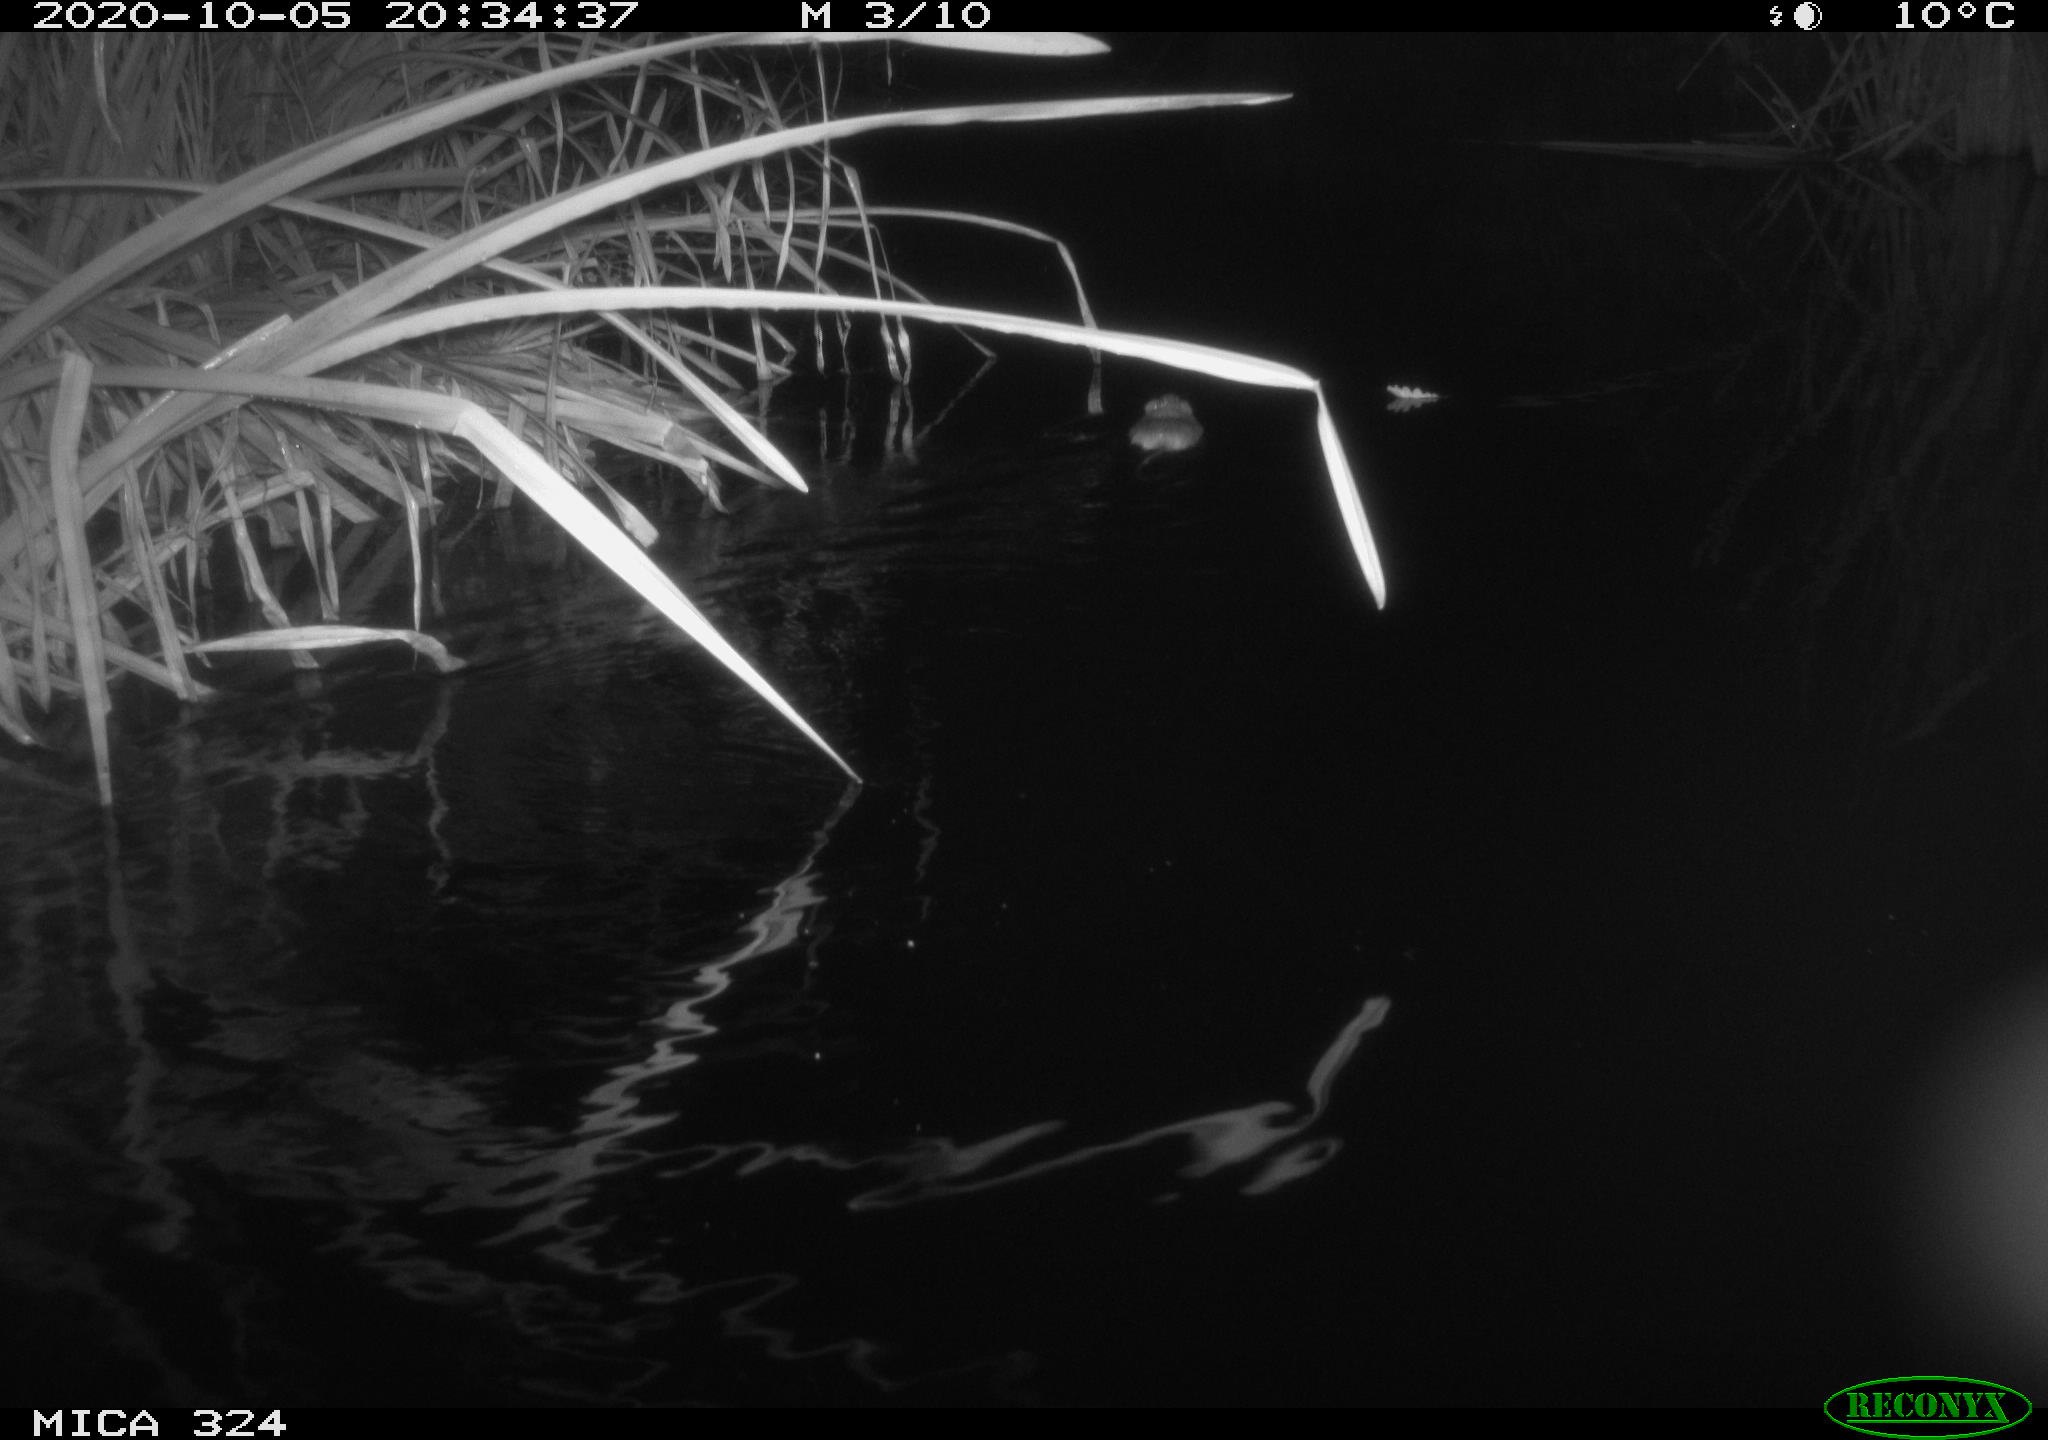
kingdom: Animalia
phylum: Chordata
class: Mammalia
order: Rodentia
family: Cricetidae
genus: Ondatra
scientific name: Ondatra zibethicus
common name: Muskrat
